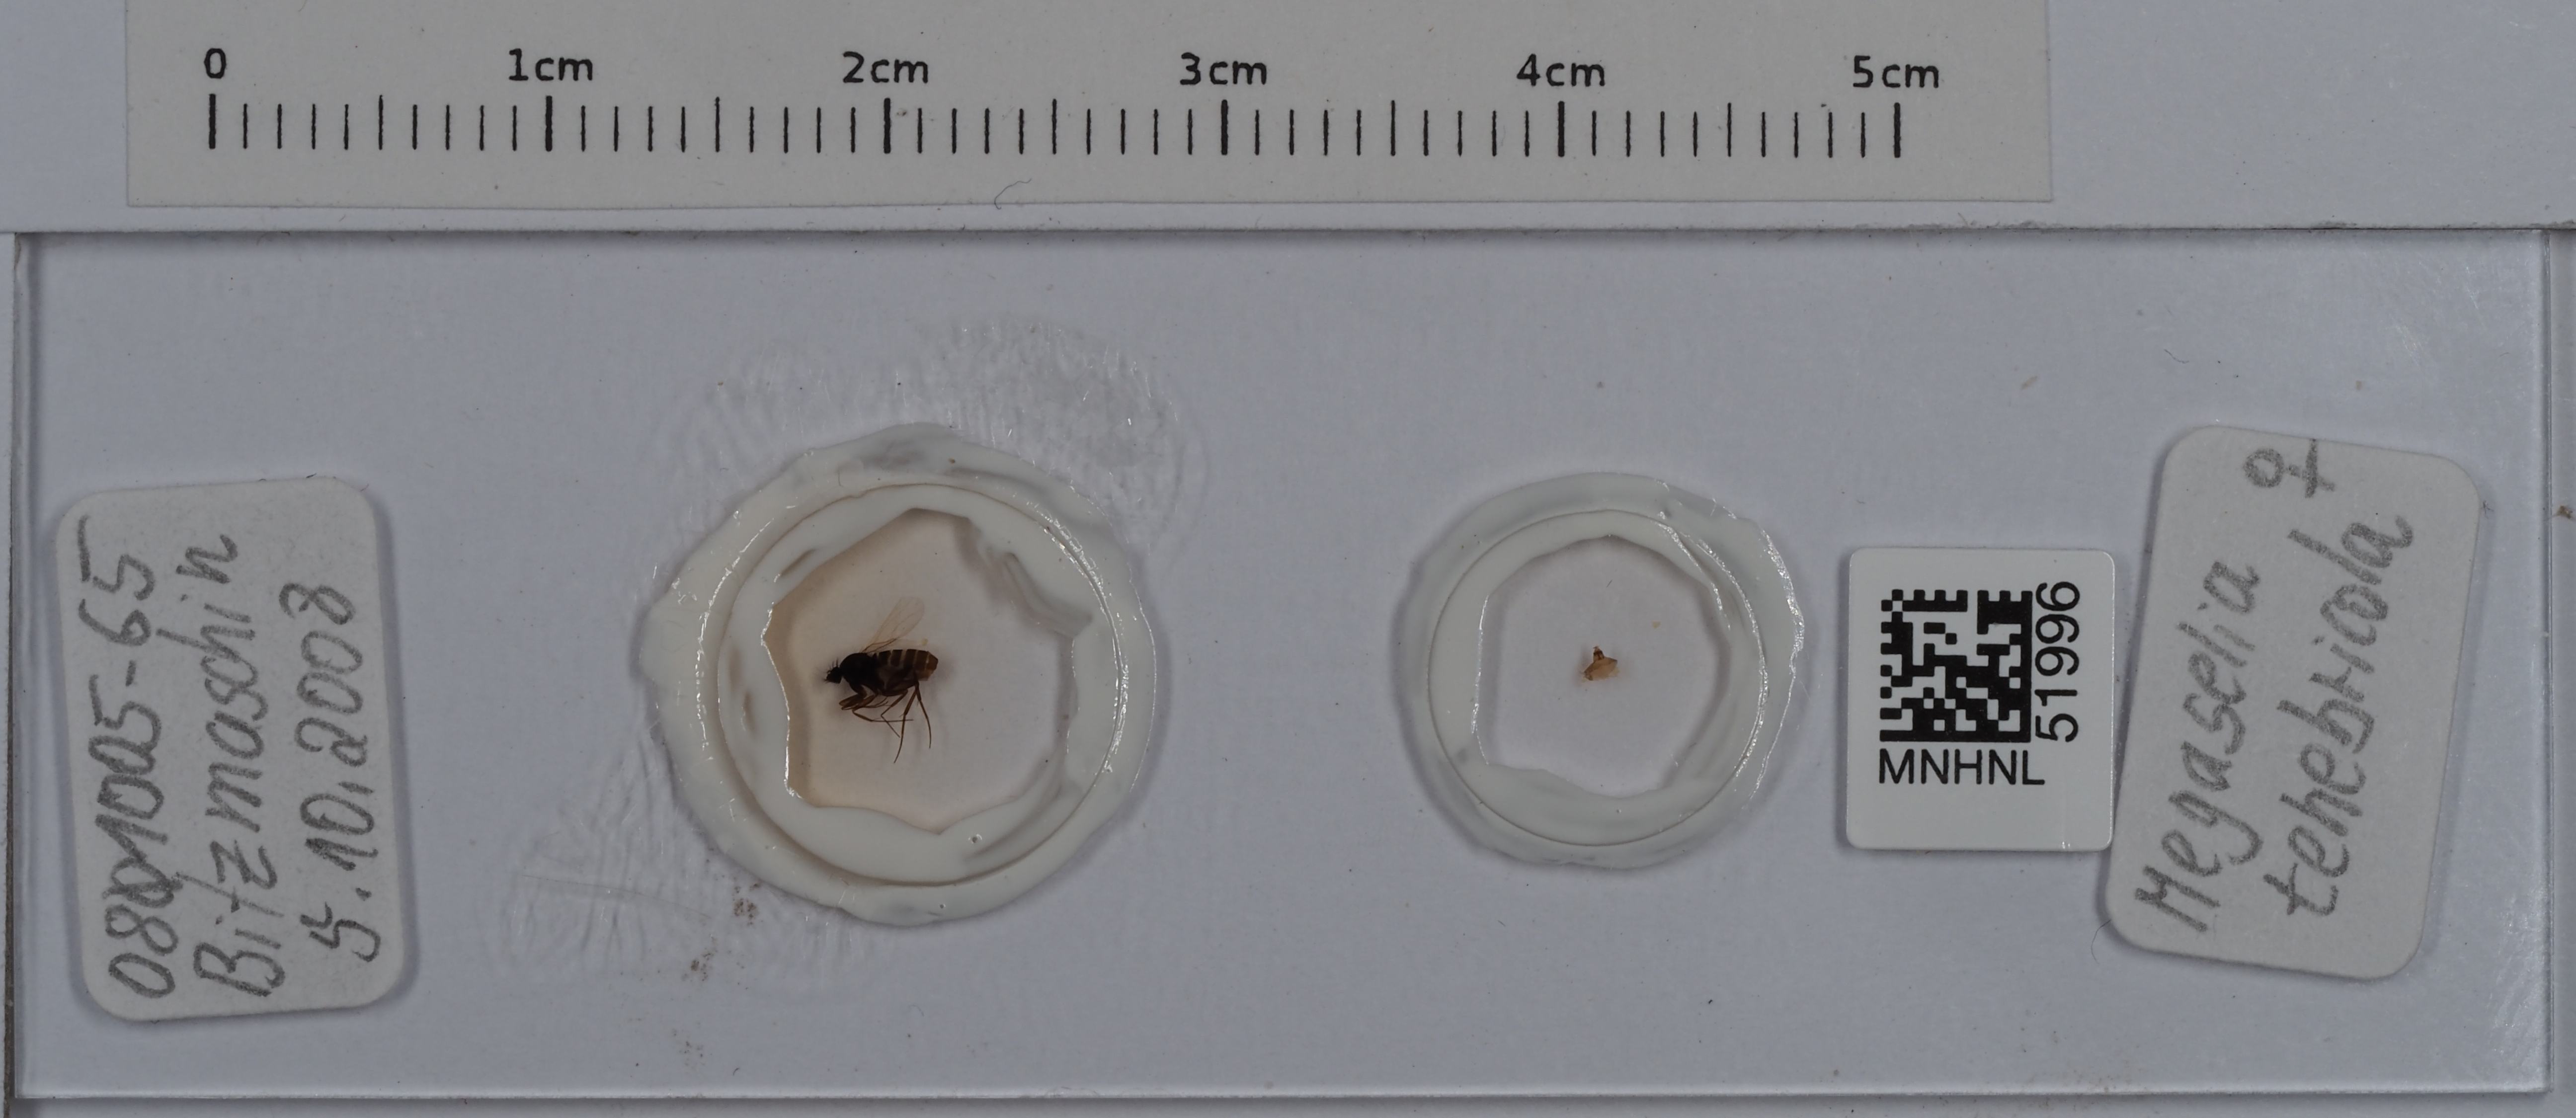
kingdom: Animalia
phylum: Arthropoda
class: Insecta
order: Diptera
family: Phoridae
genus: Megaselia
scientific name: Megaselia tenebricola
